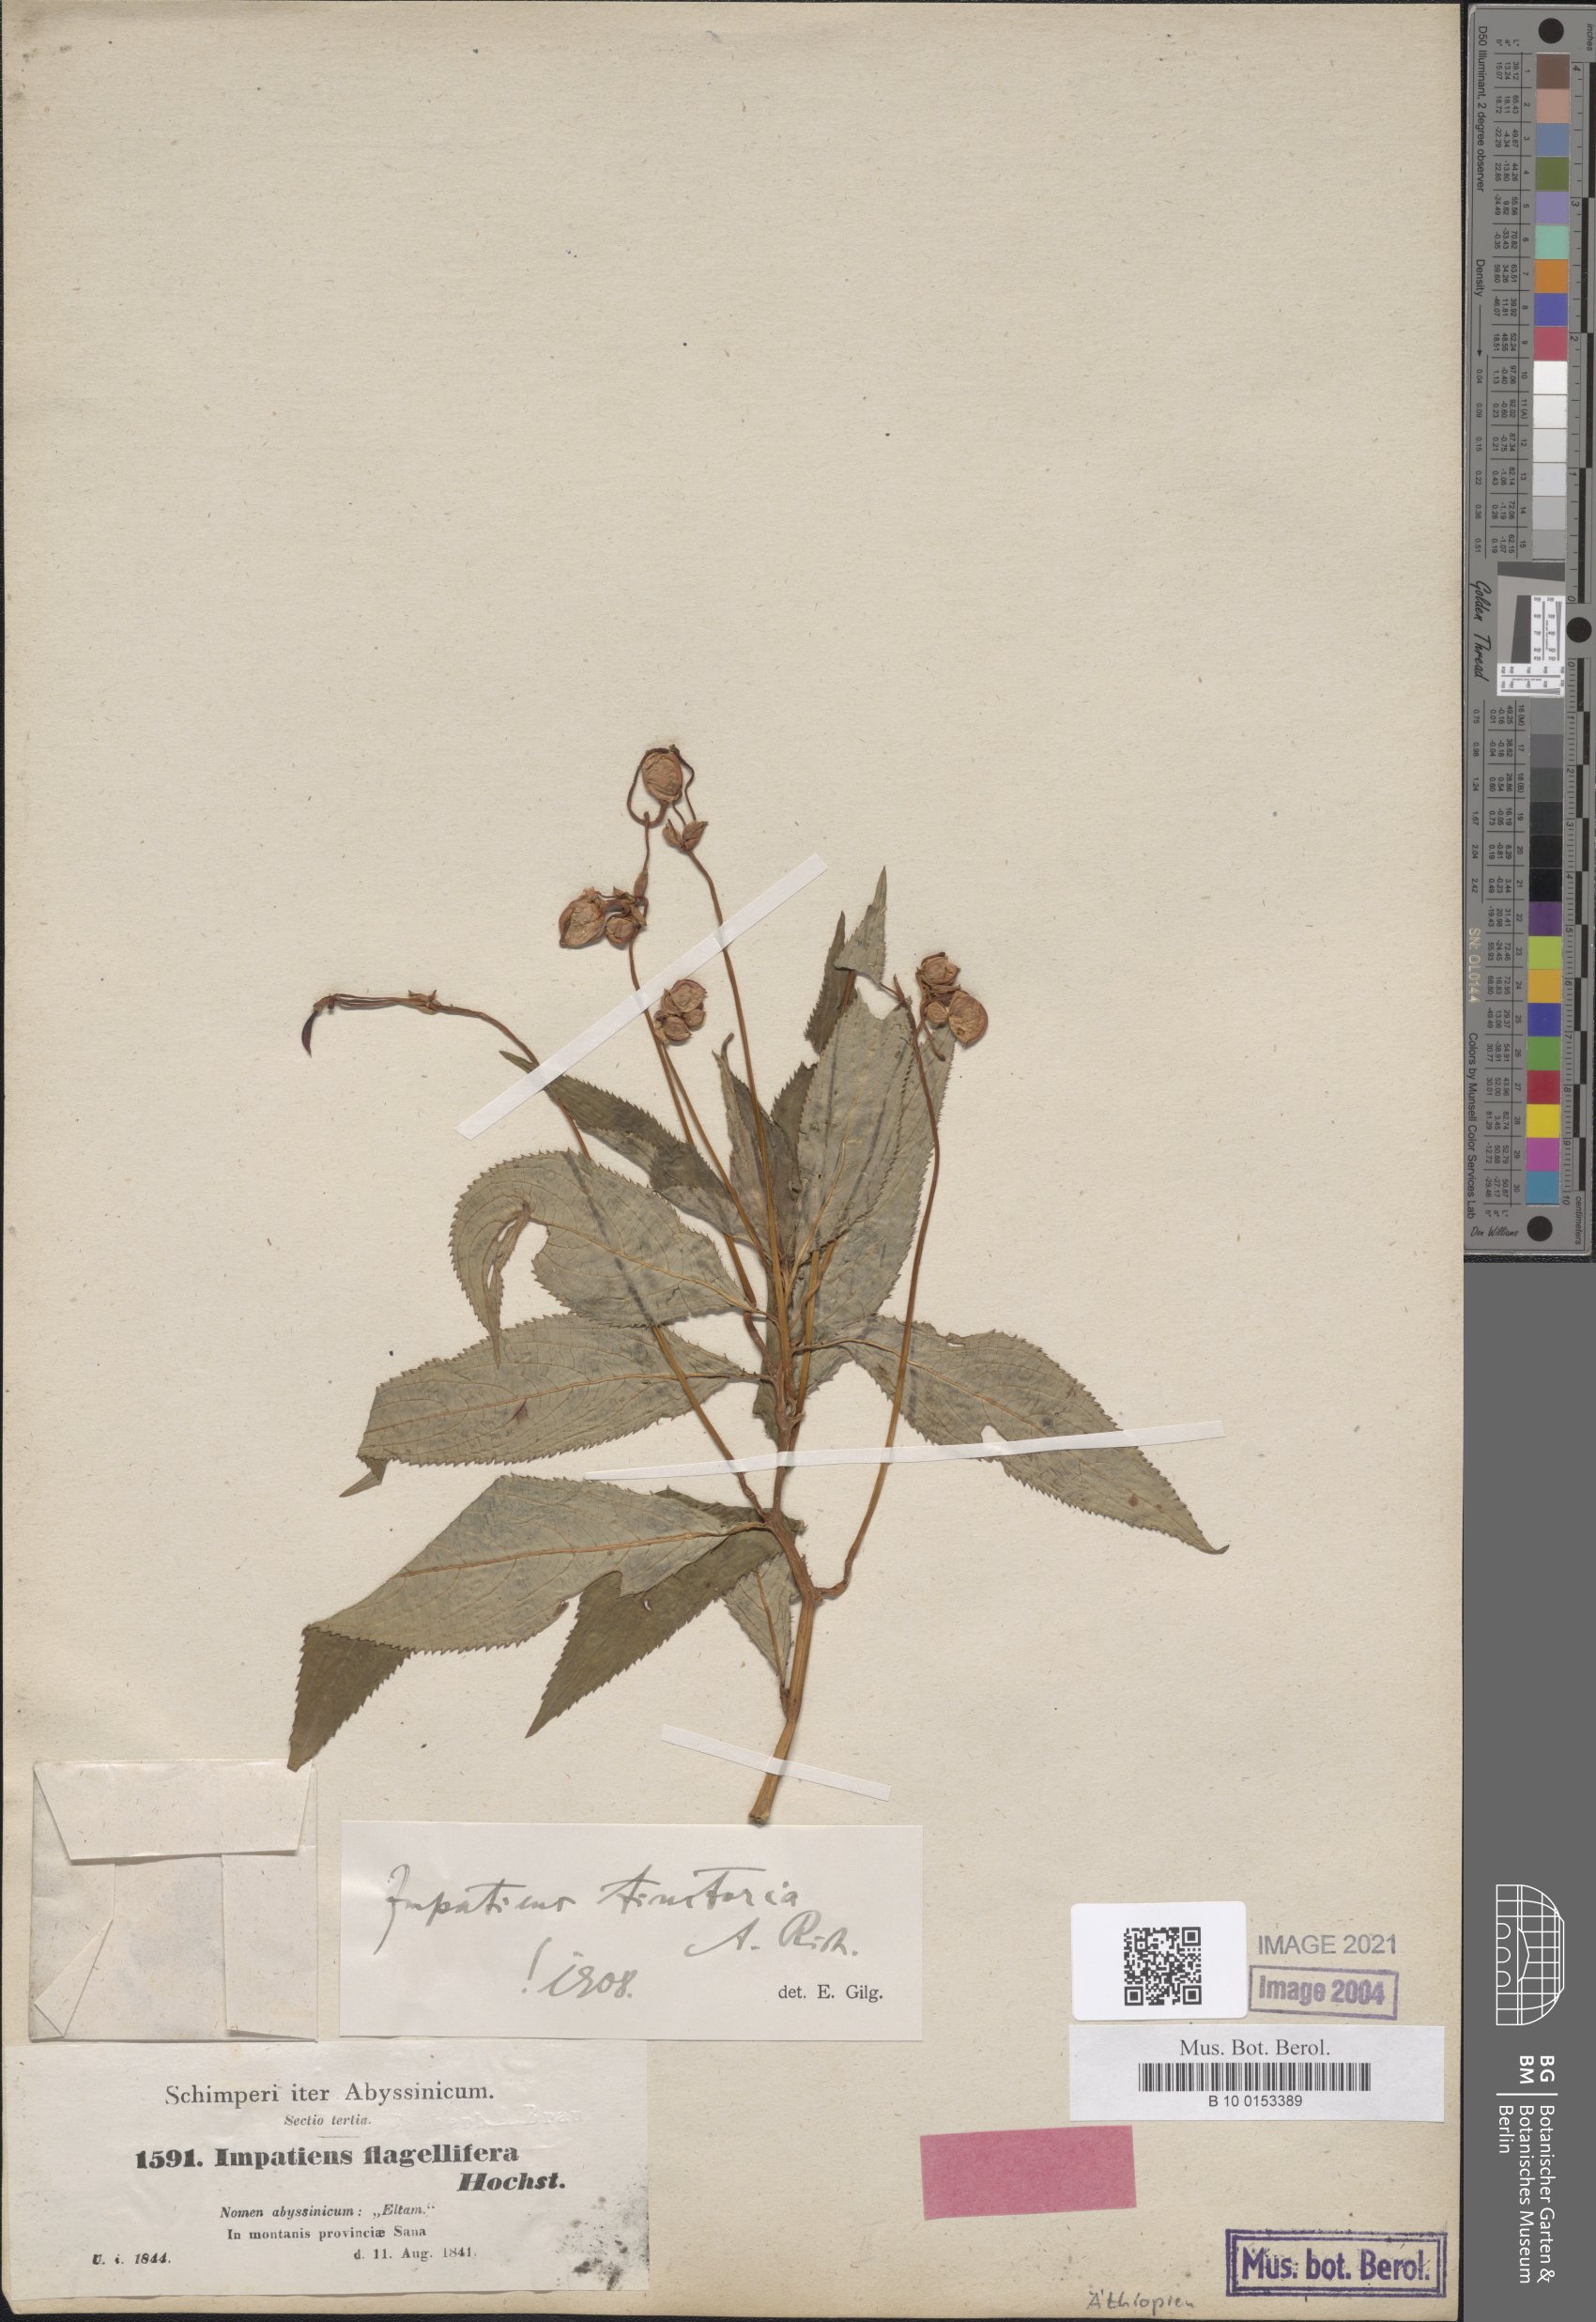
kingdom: Plantae
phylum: Tracheophyta
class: Magnoliopsida
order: Ericales
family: Balsaminaceae
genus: Impatiens
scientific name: Impatiens tinctoria
